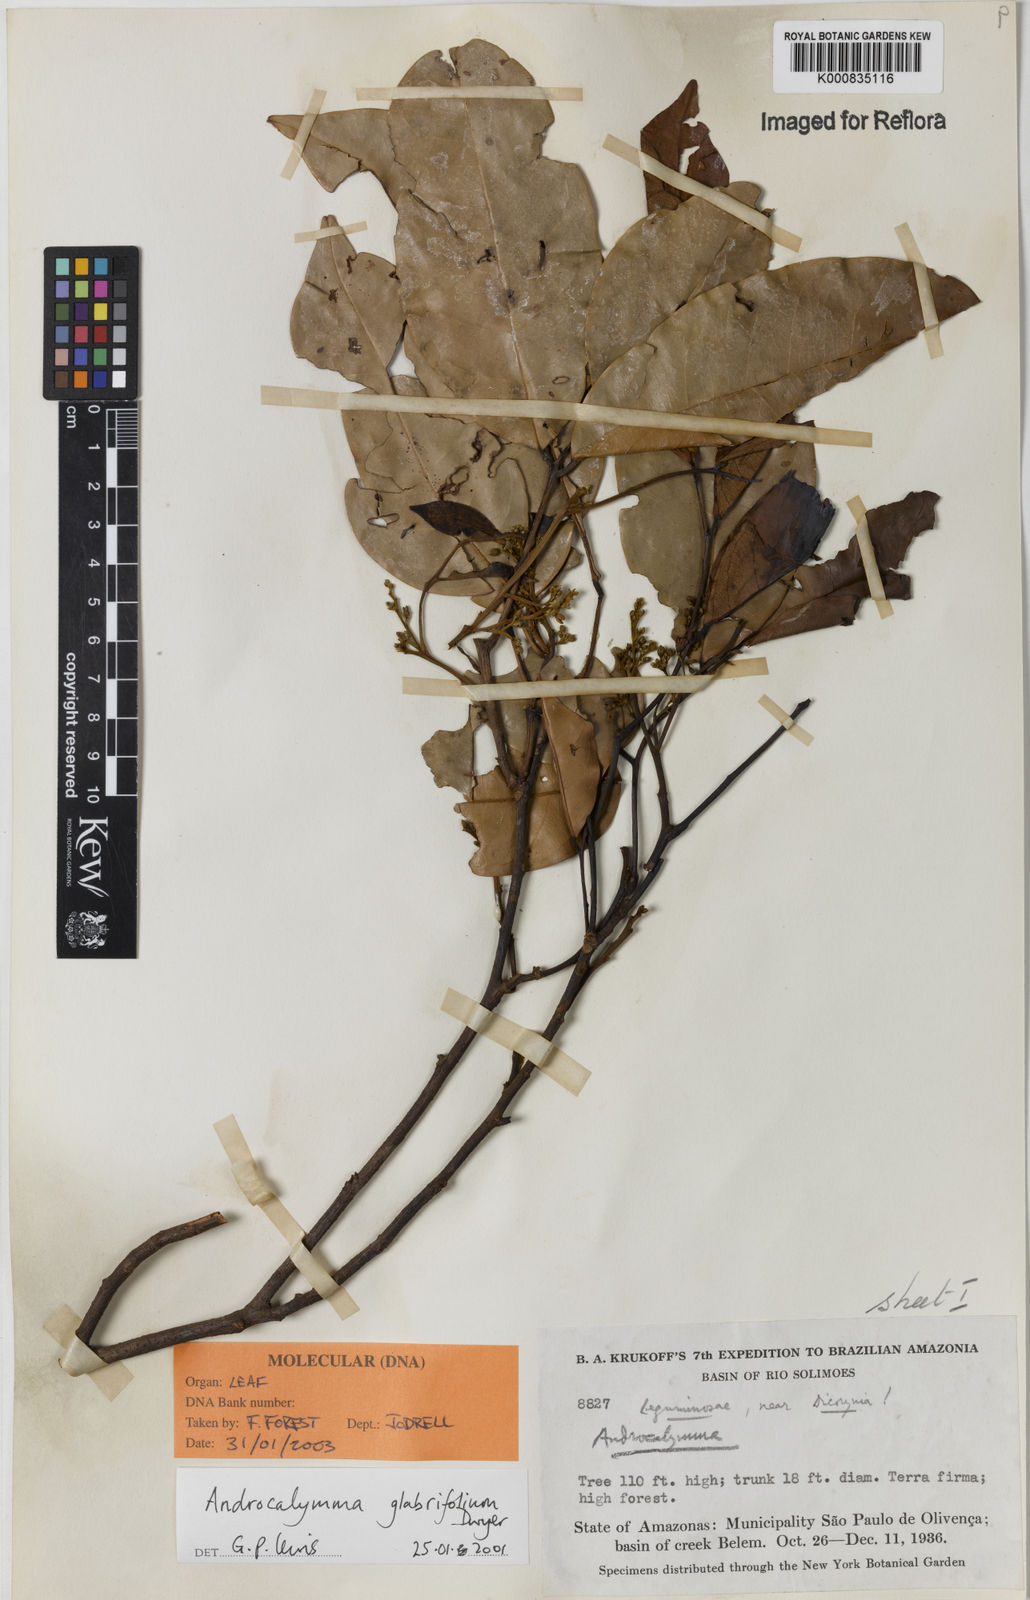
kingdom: Plantae
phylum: Tracheophyta
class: Magnoliopsida
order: Fabales
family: Fabaceae
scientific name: Fabaceae
